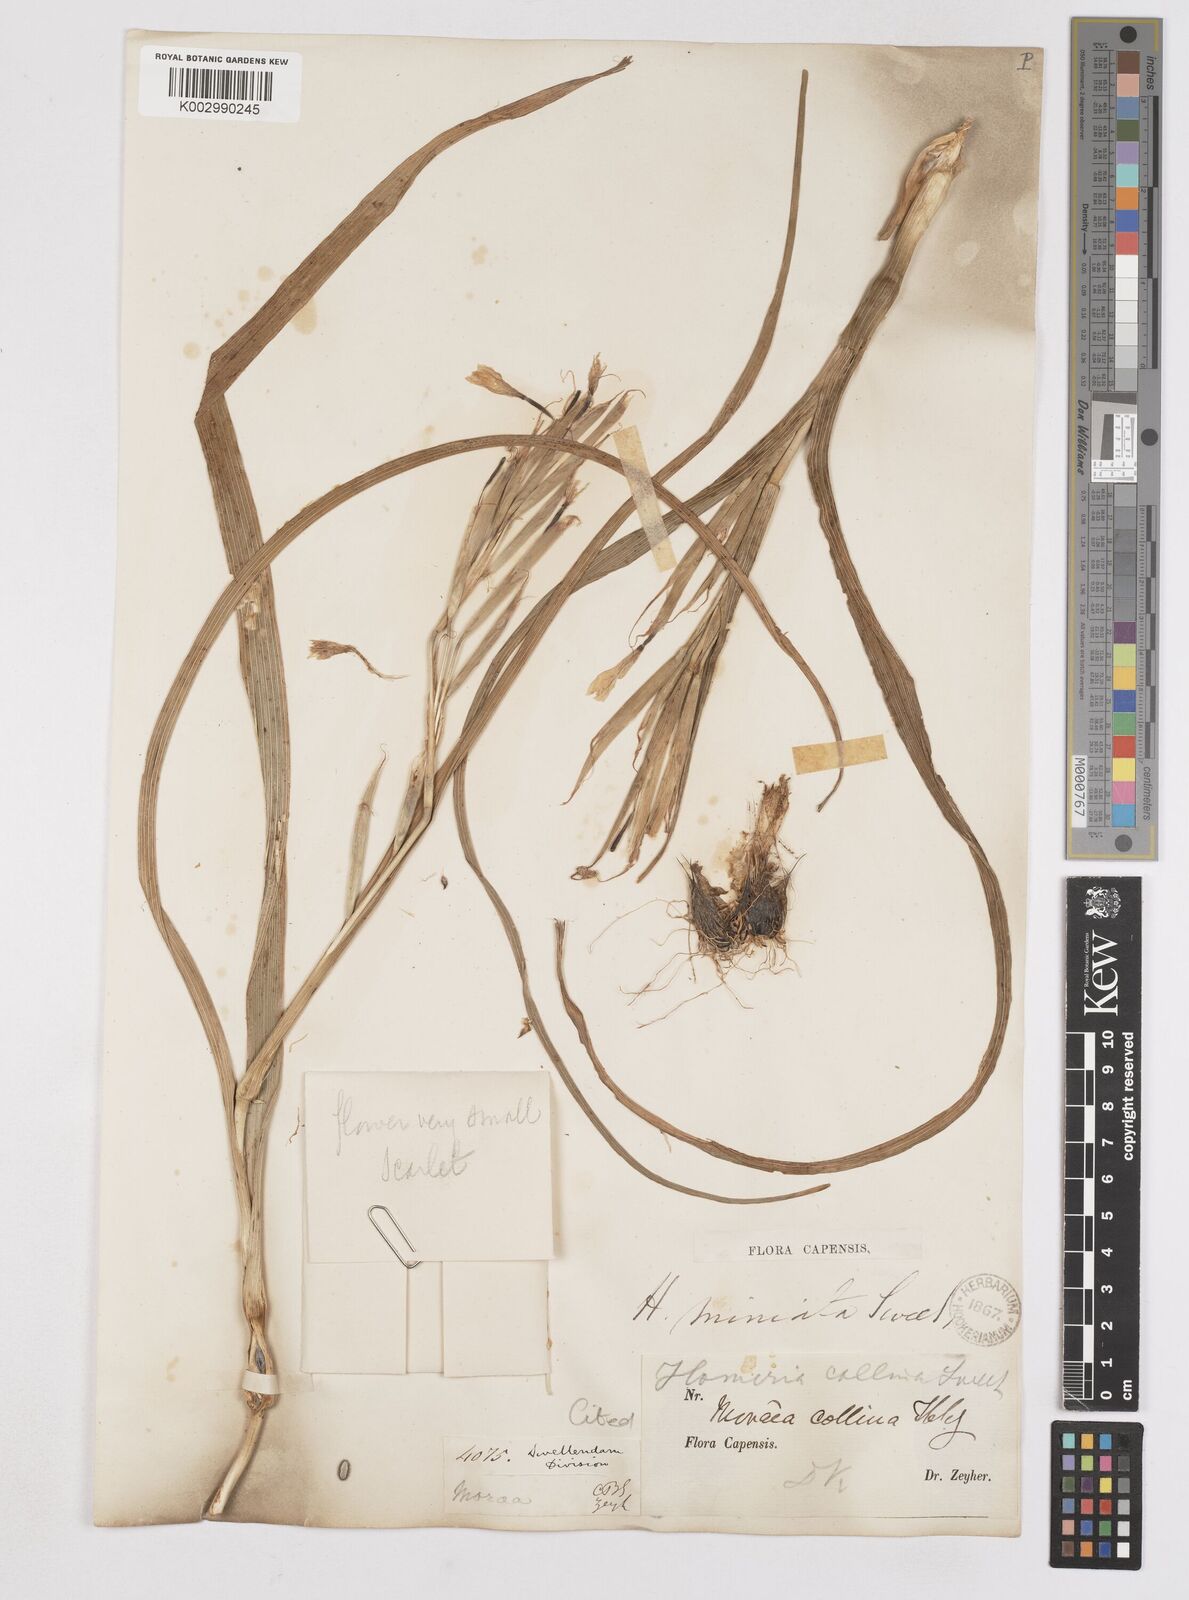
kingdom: Plantae
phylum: Tracheophyta
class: Liliopsida
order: Asparagales
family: Iridaceae
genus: Moraea
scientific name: Moraea miniata
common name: Two-leaf cape-tulip
